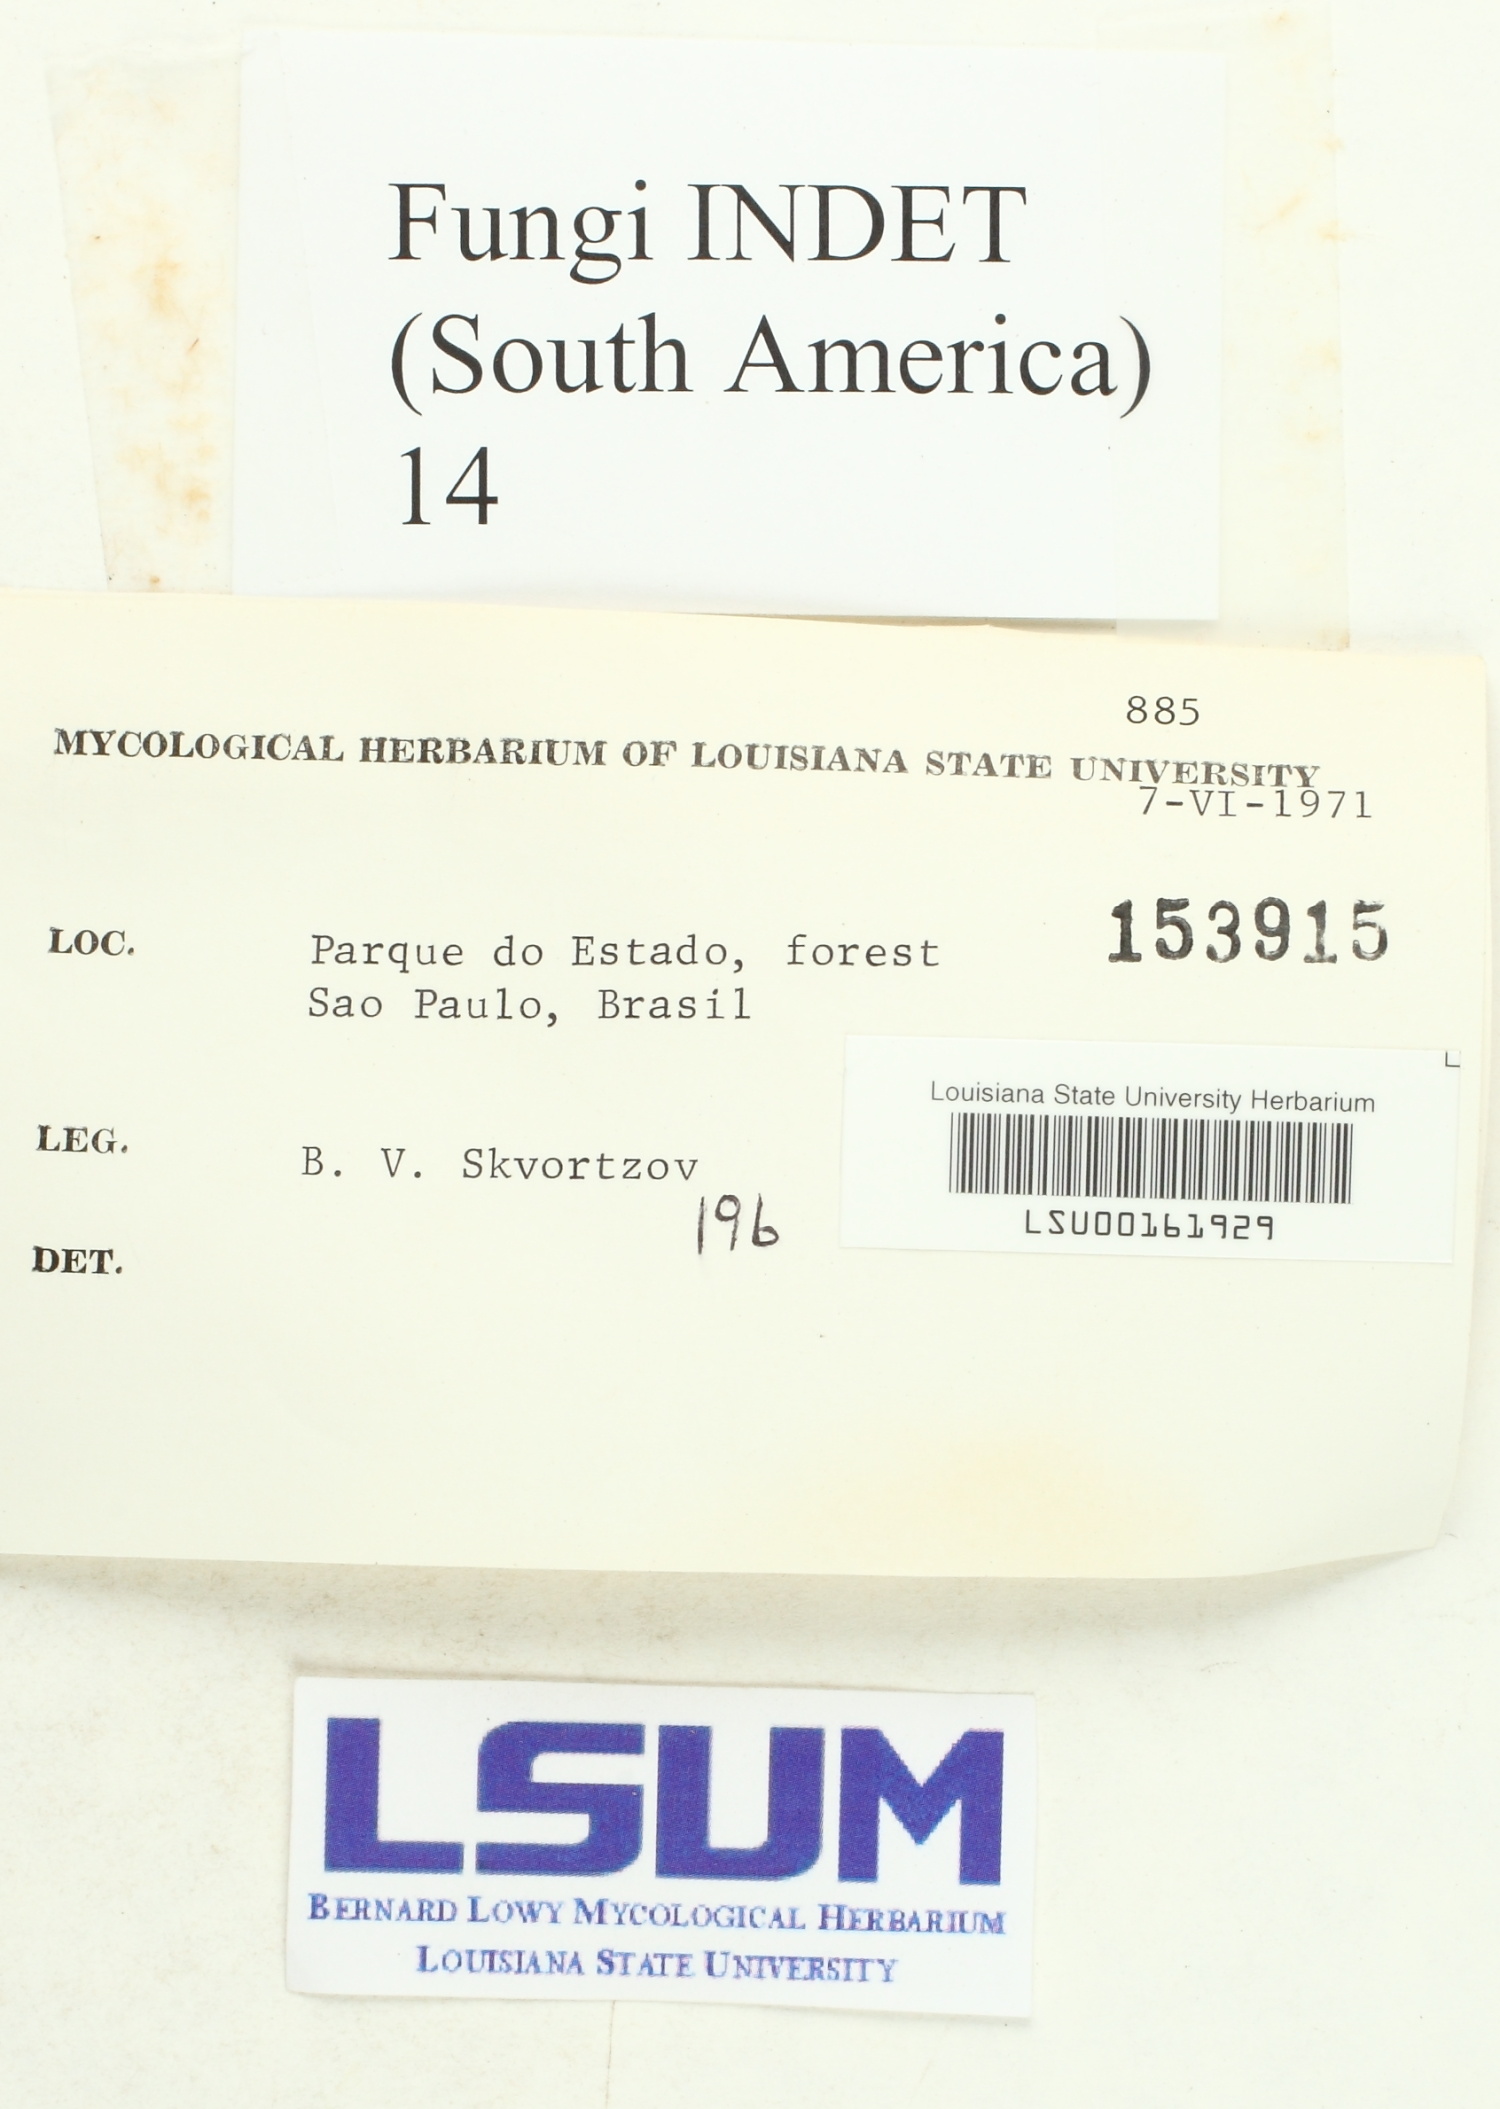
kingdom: Fungi
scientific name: Fungi
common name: Fungi
